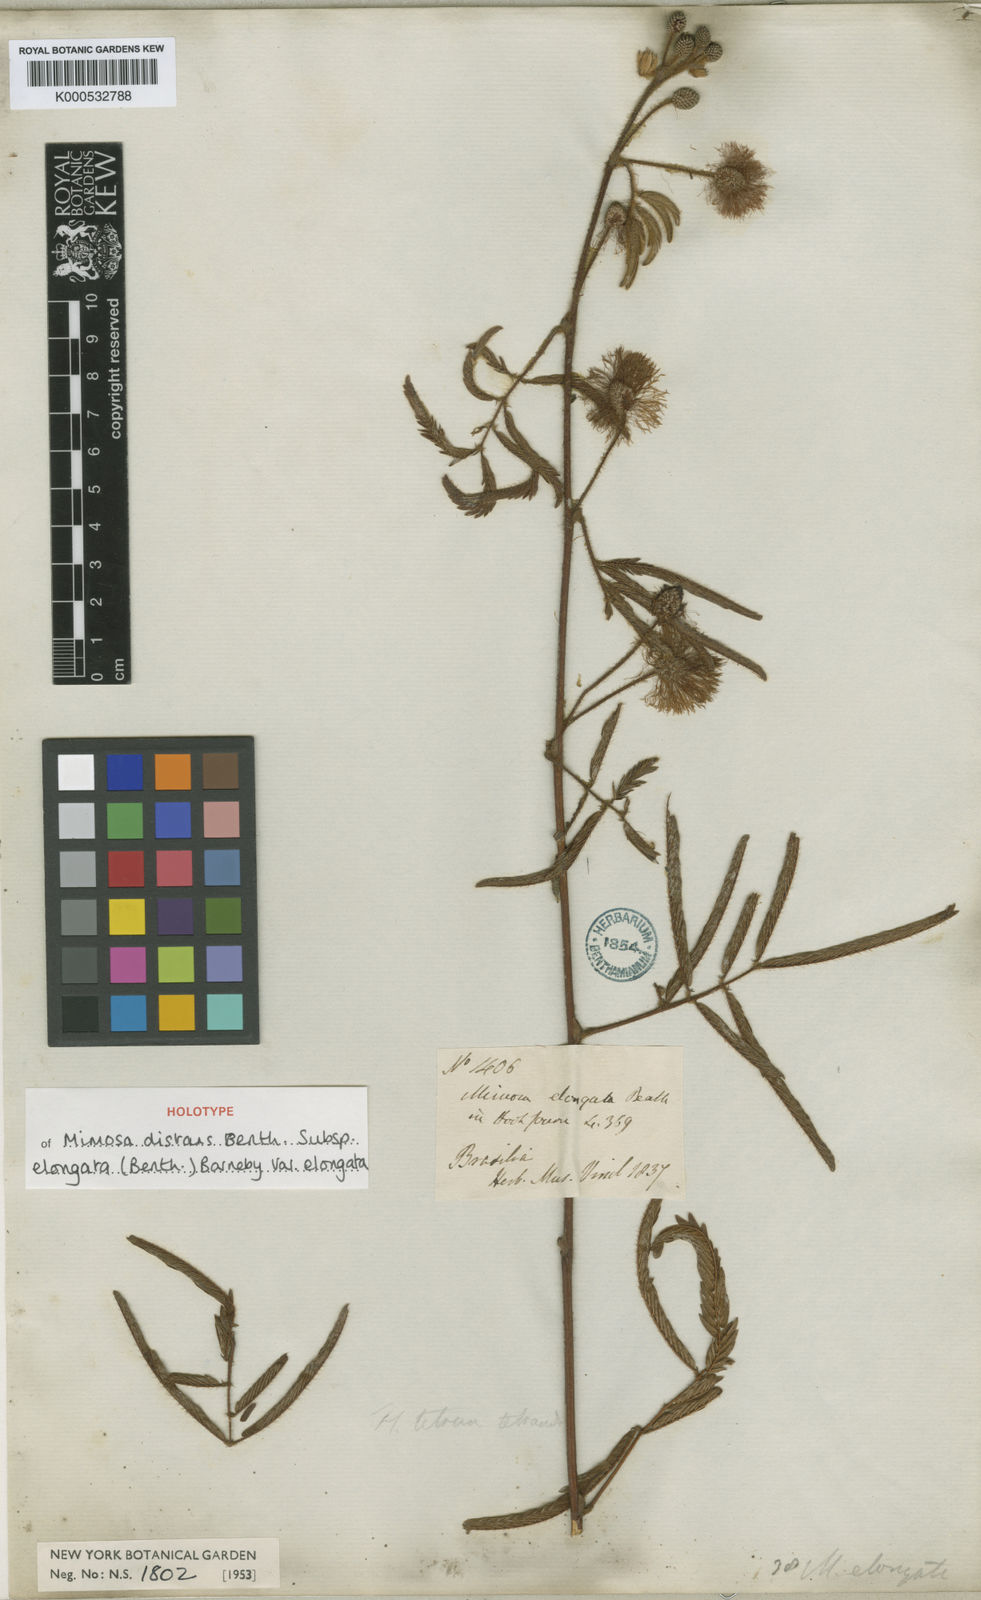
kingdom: Plantae
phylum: Tracheophyta
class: Magnoliopsida
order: Fabales
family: Fabaceae
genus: Mimosa
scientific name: Mimosa distans
